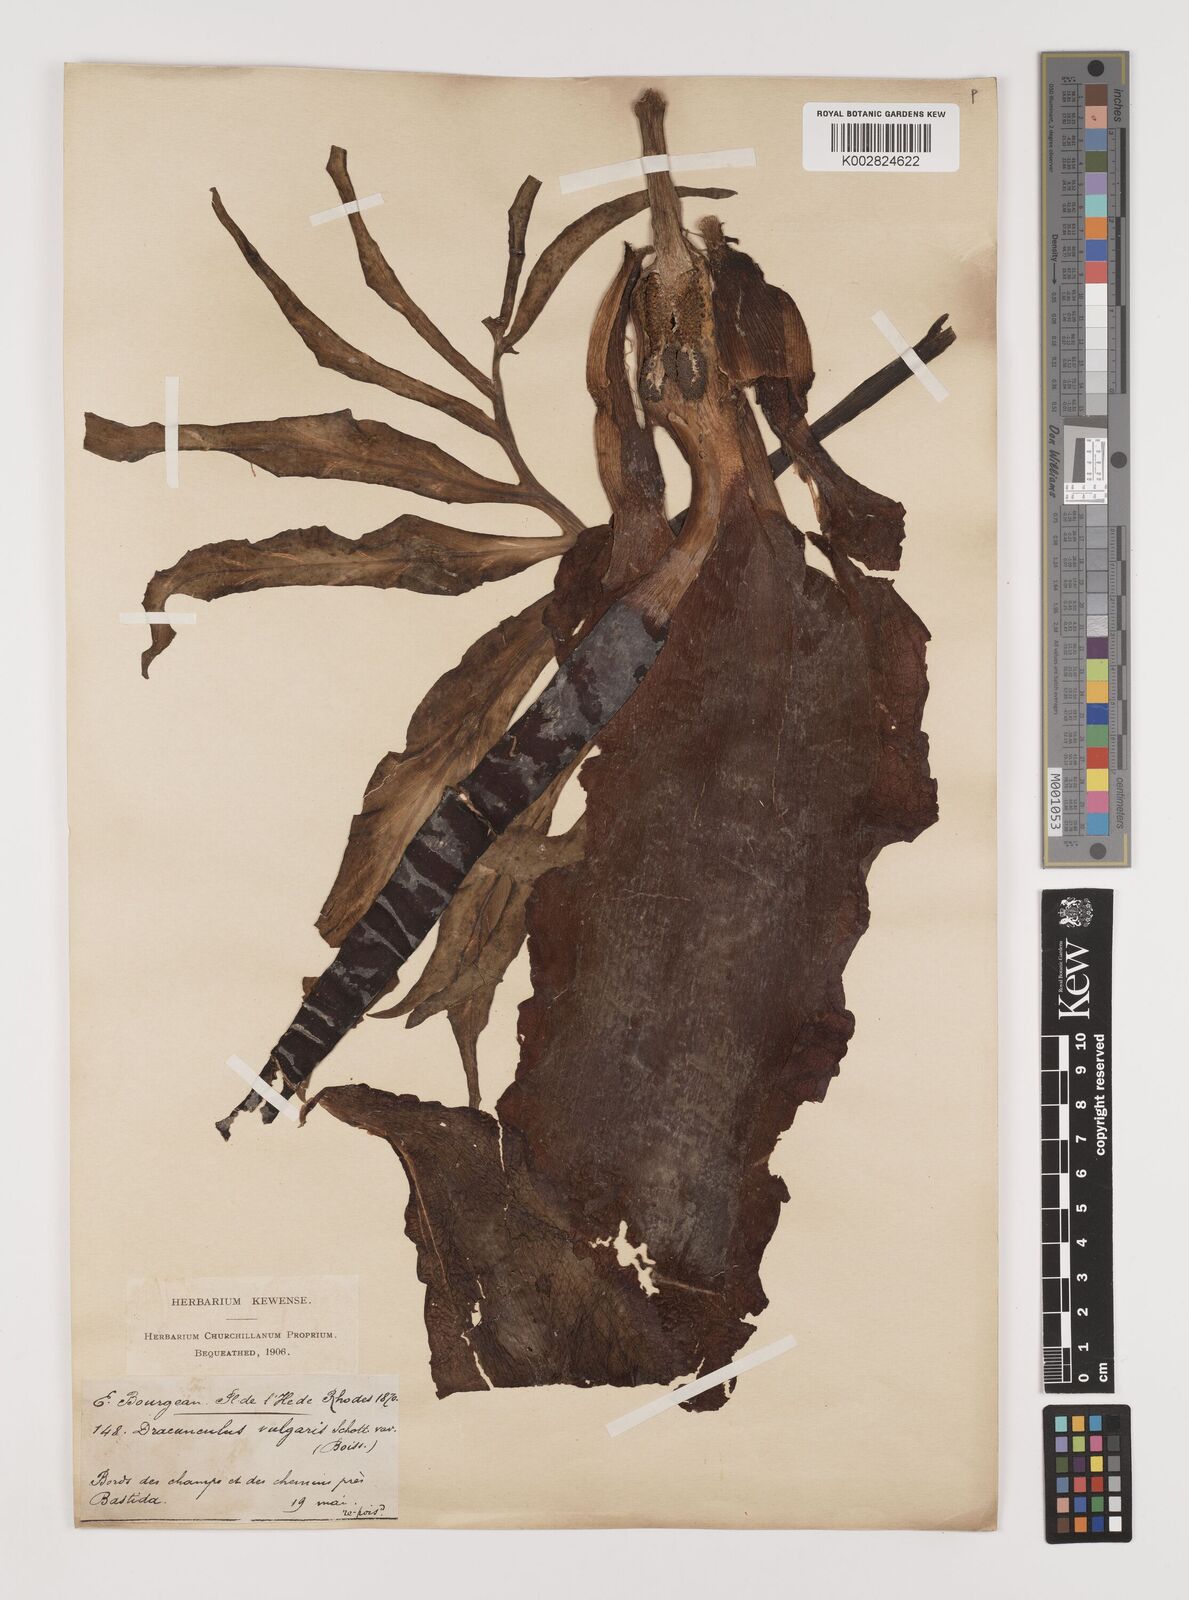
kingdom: Plantae
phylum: Tracheophyta
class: Liliopsida
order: Alismatales
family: Araceae
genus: Dracunculus
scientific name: Dracunculus vulgaris
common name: Dragon arum
